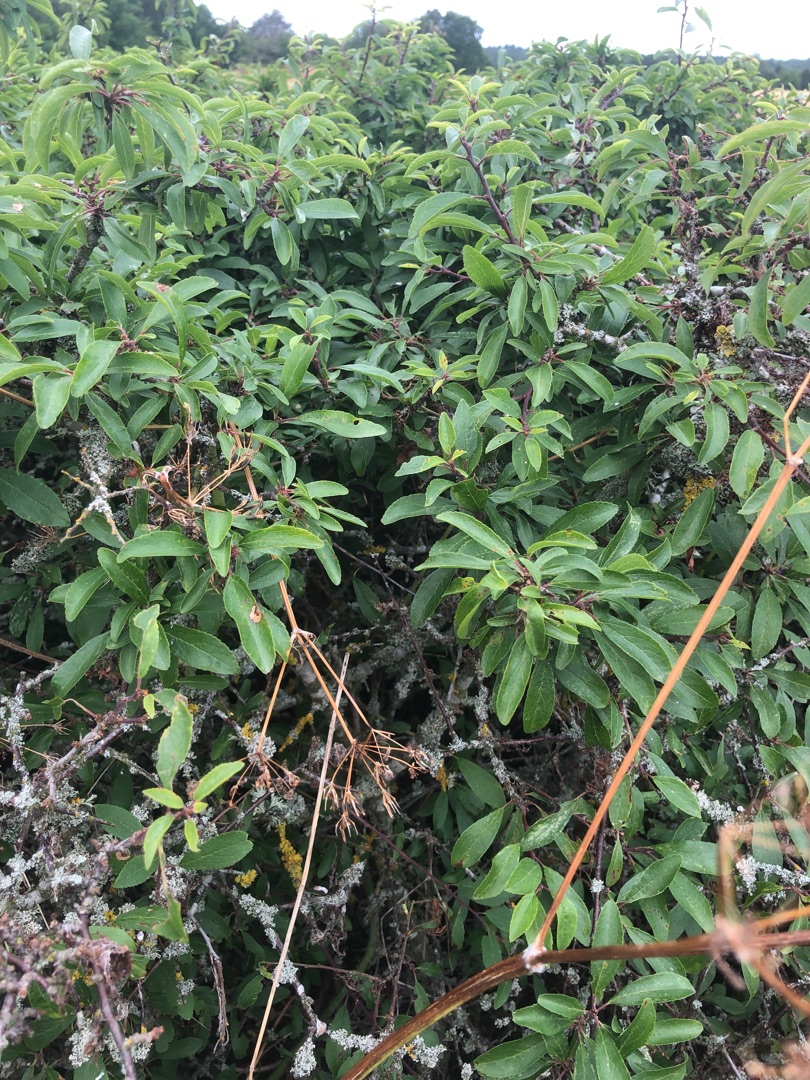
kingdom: Plantae
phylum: Tracheophyta
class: Magnoliopsida
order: Rosales
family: Rosaceae
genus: Prunus
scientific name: Prunus spinosa
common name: Slåen
